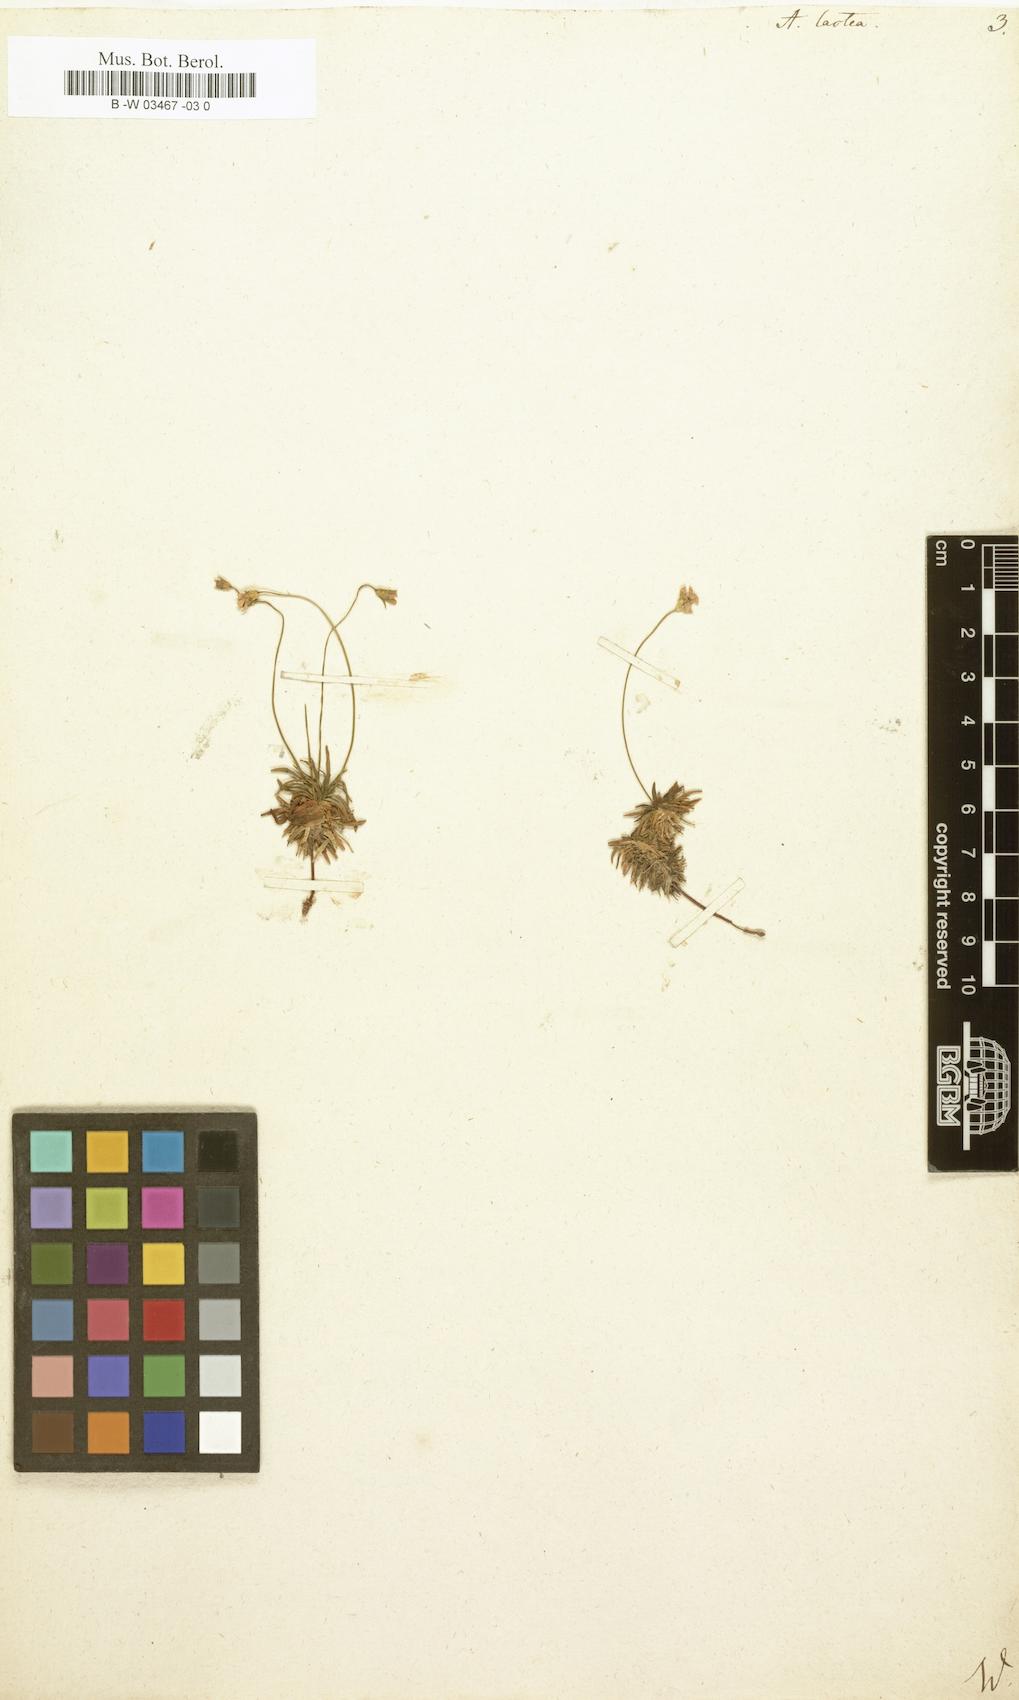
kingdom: Plantae
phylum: Tracheophyta
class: Magnoliopsida
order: Ericales
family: Primulaceae
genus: Androsace
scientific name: Androsace lactea
